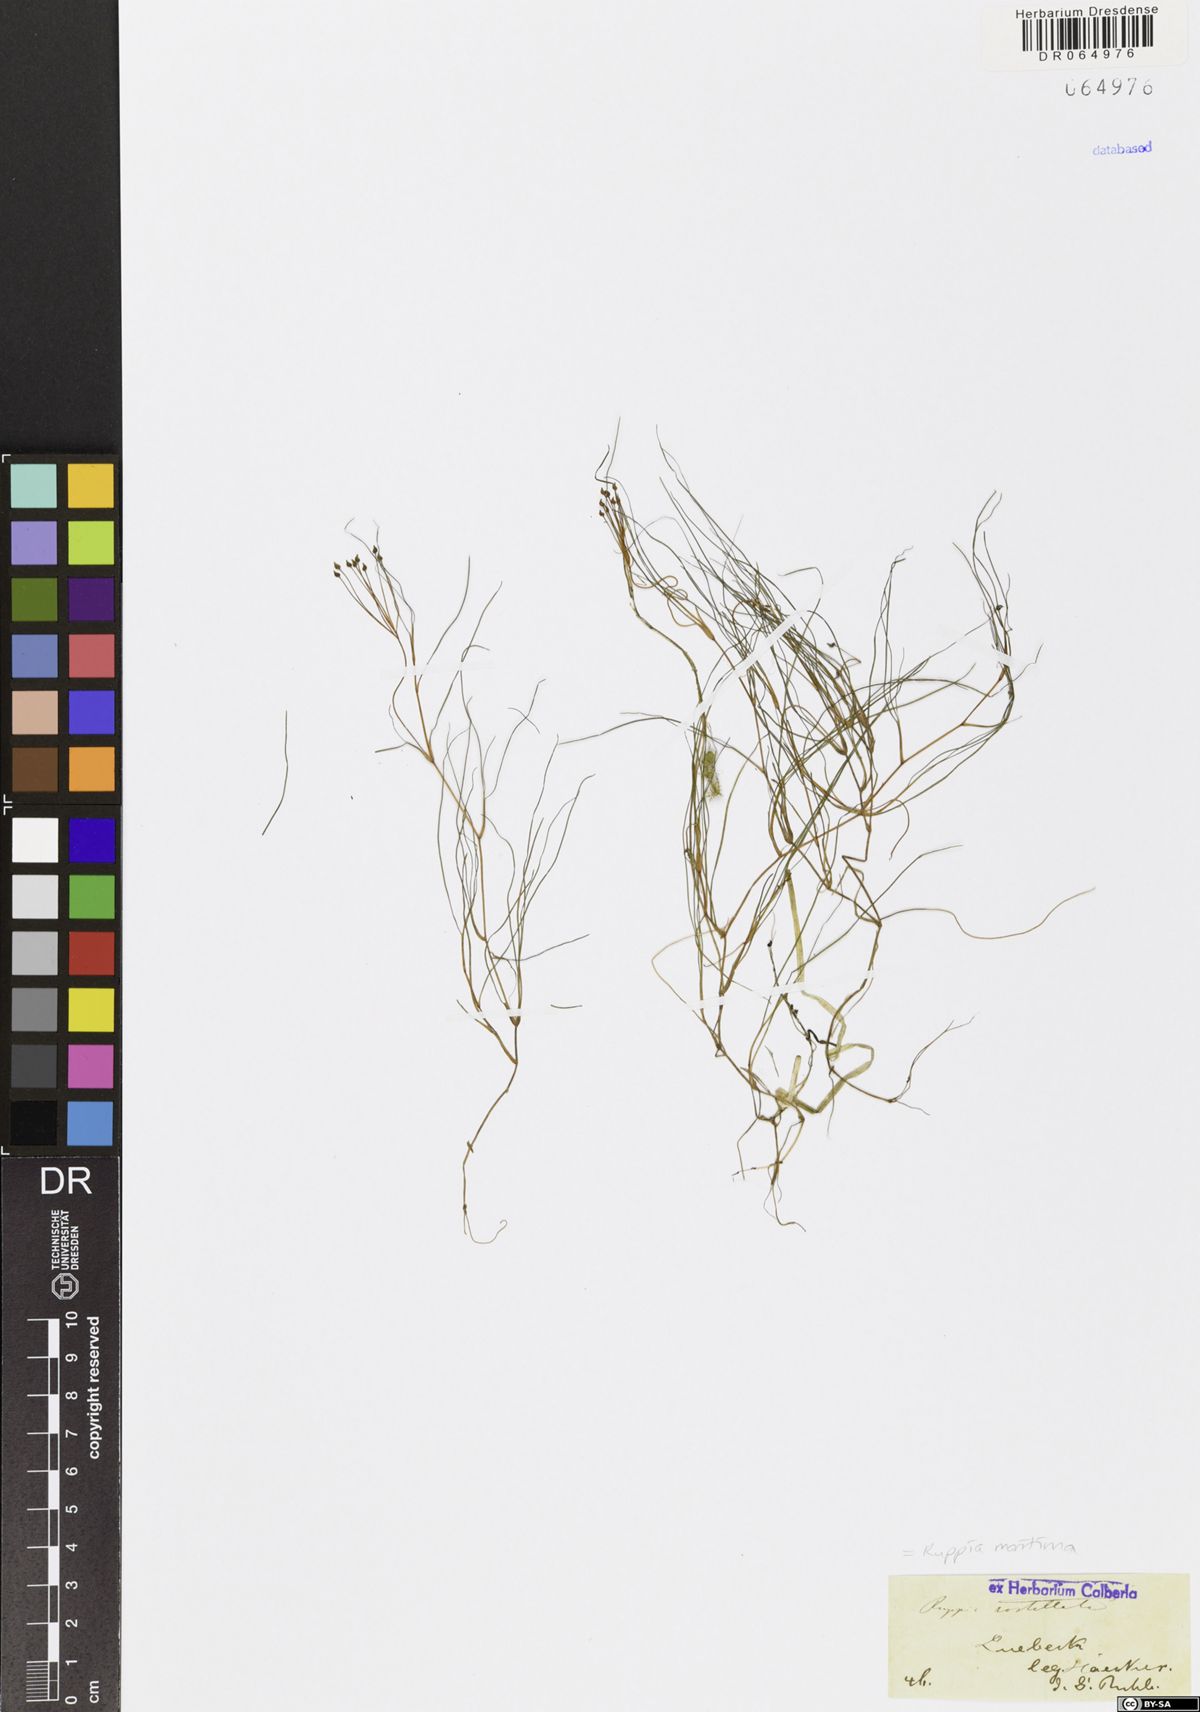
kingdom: Plantae
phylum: Tracheophyta
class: Liliopsida
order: Alismatales
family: Ruppiaceae
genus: Ruppia
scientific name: Ruppia maritima
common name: Beaked tasselweed
